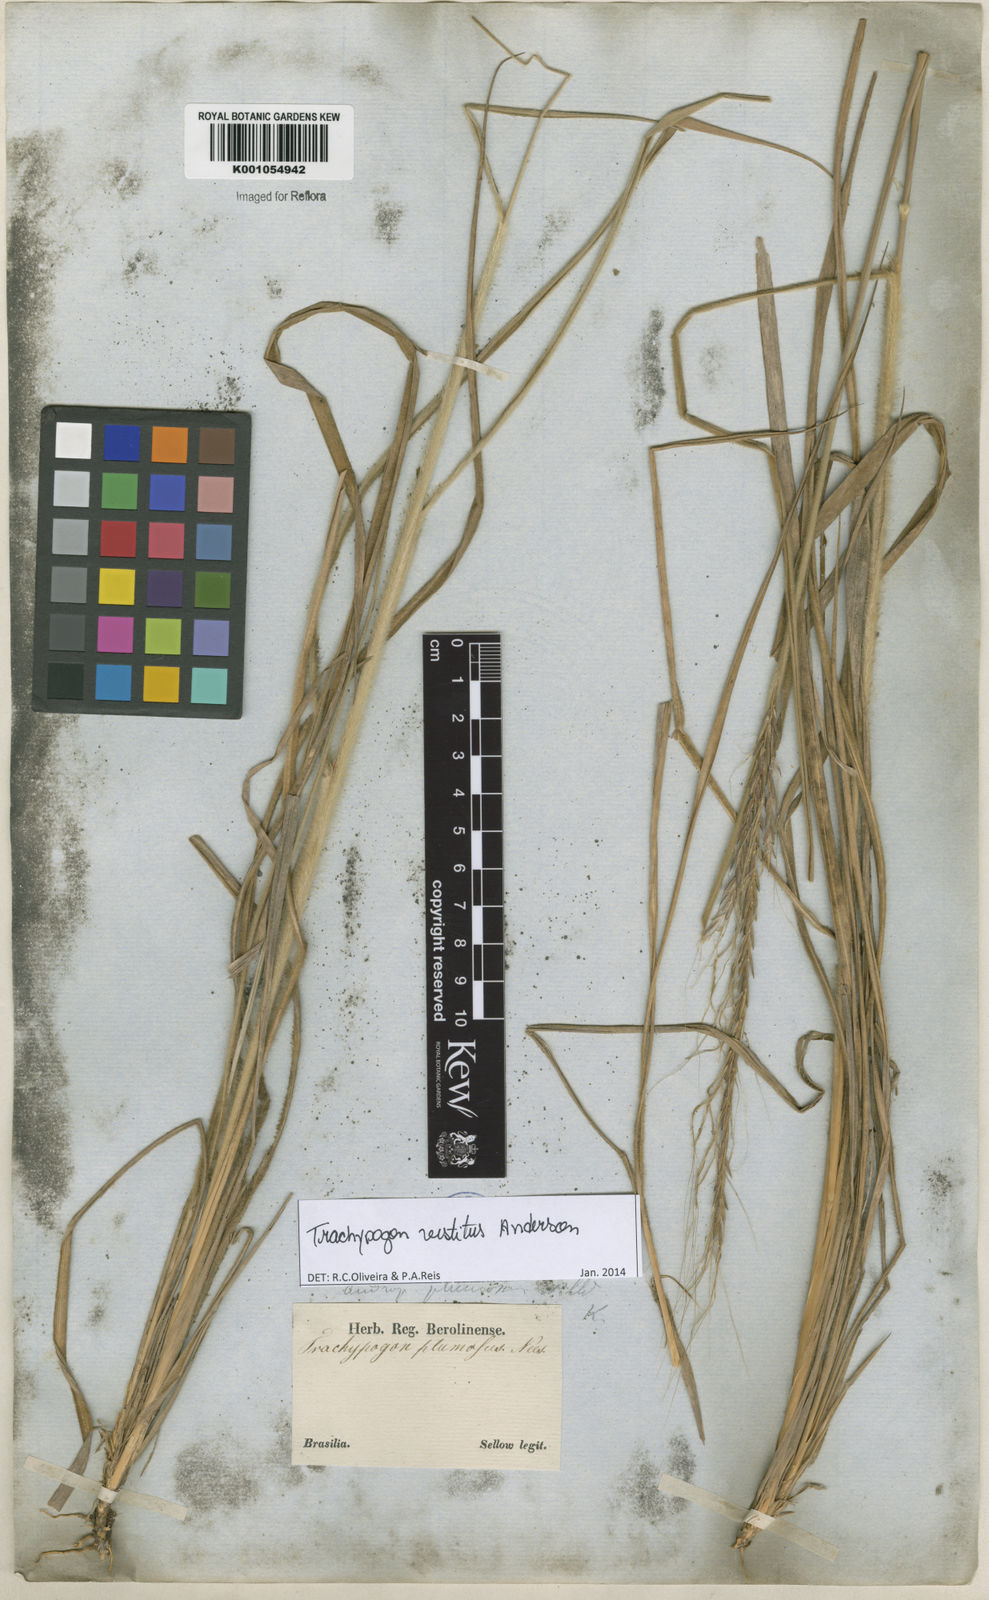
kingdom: Plantae
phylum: Tracheophyta
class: Liliopsida
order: Poales
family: Poaceae
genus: Trachypogon
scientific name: Trachypogon vestitus
